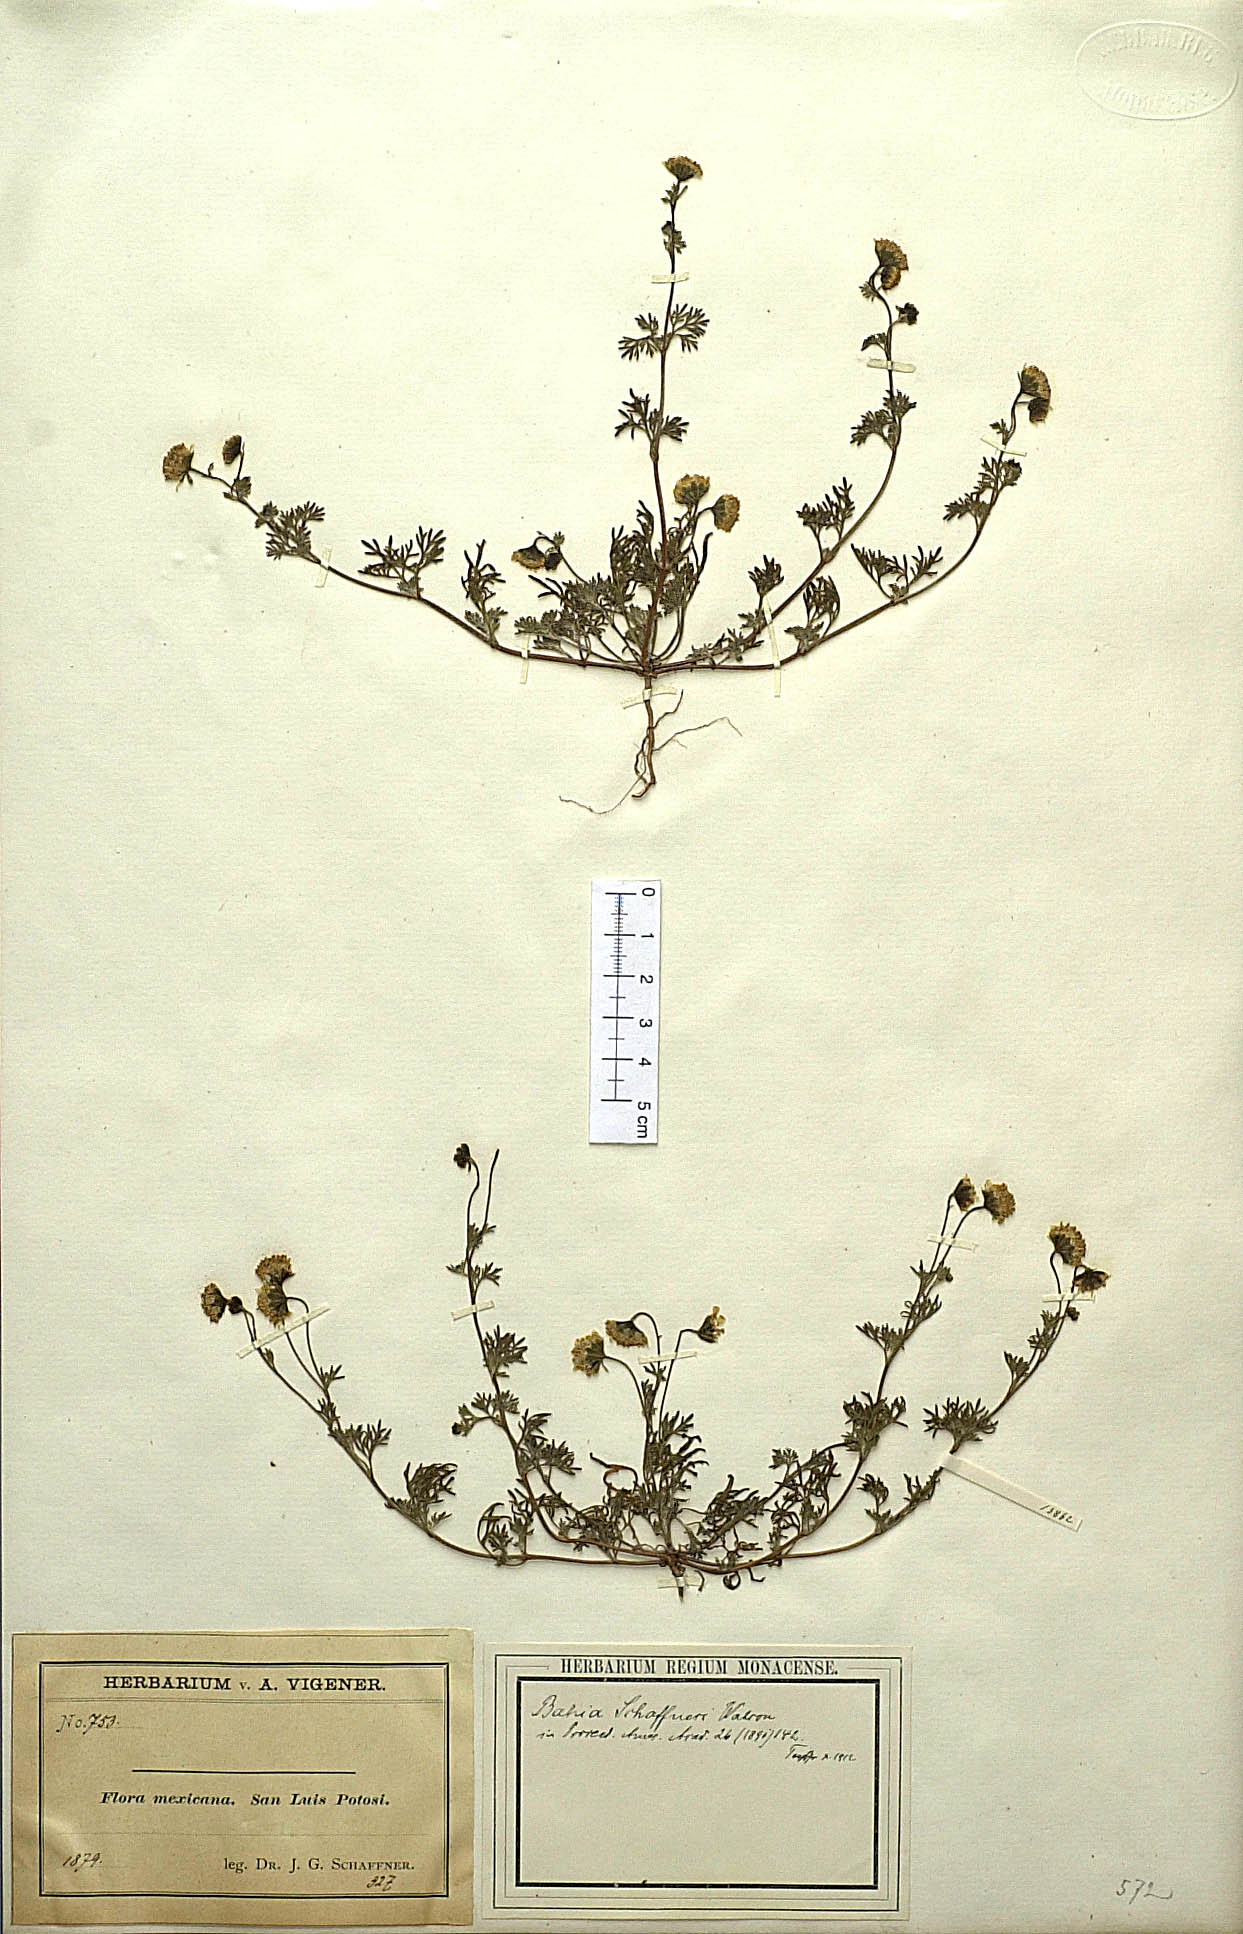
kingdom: Plantae
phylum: Tracheophyta
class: Magnoliopsida
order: Asterales
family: Asteraceae
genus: Picradeniopsis
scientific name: Picradeniopsis schaffneri
